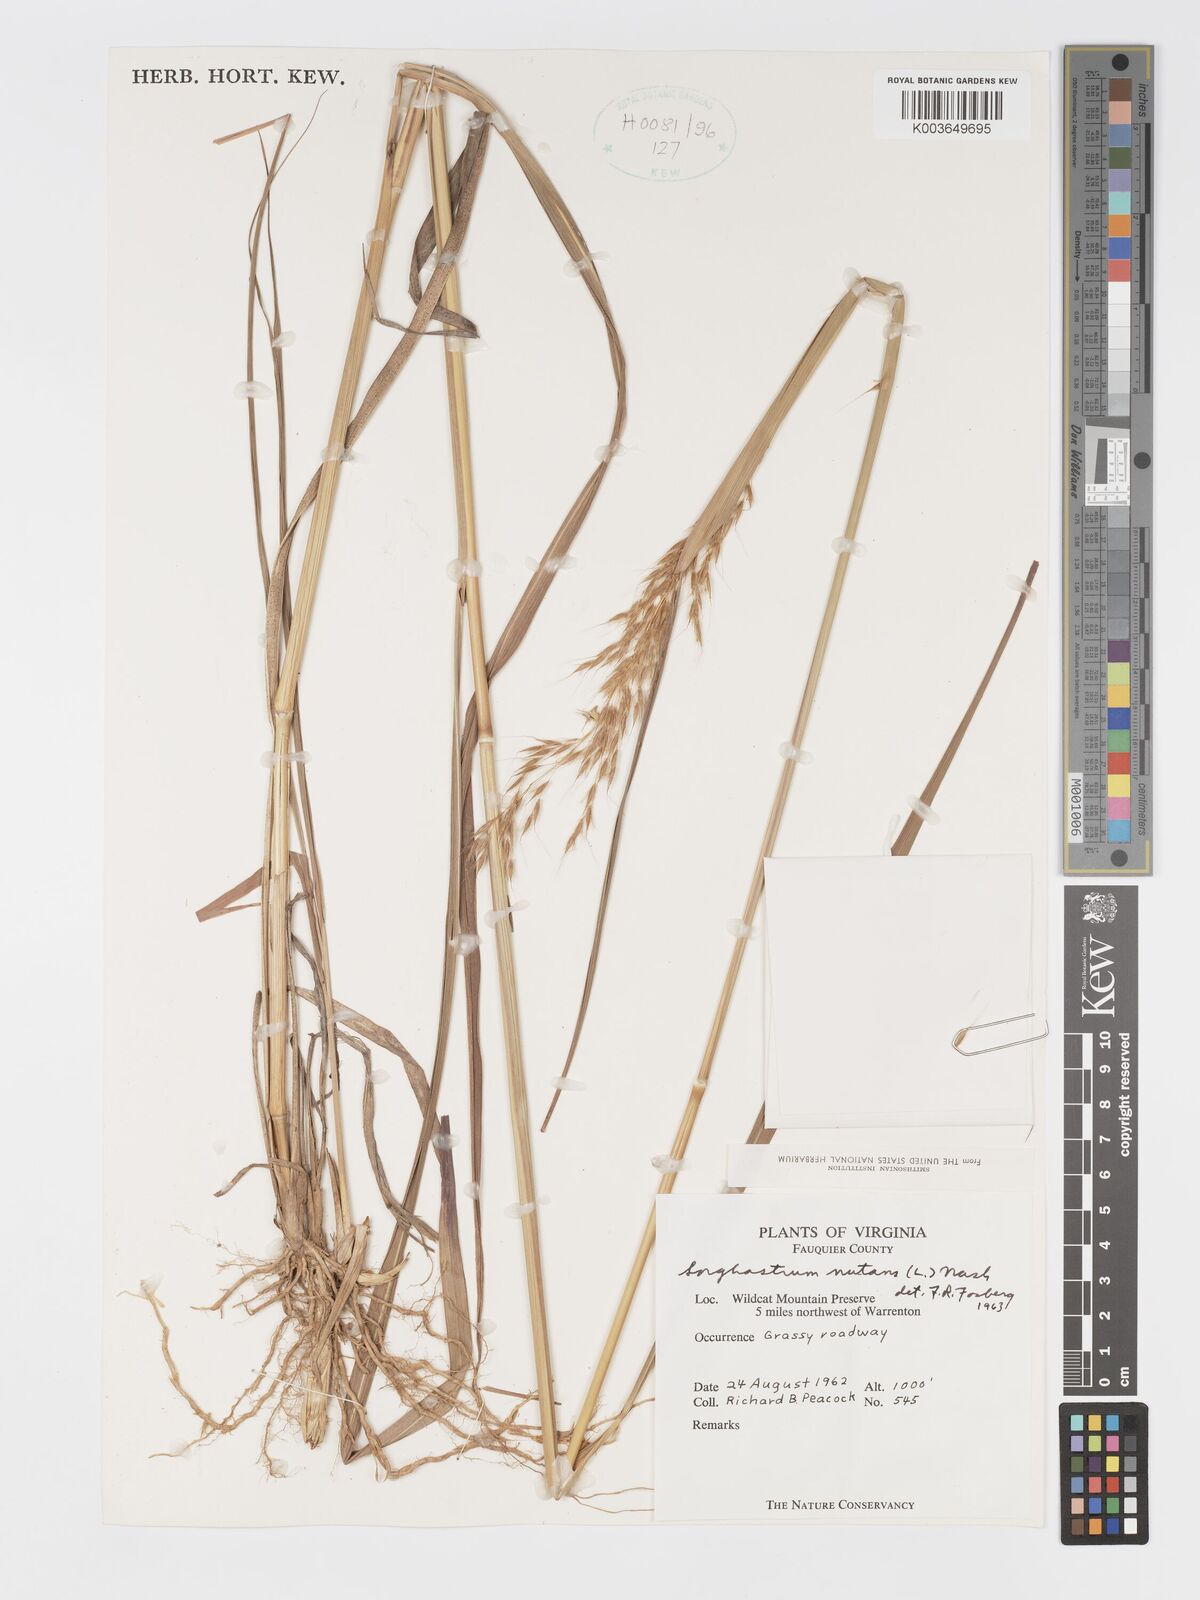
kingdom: Plantae
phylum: Tracheophyta
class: Liliopsida
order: Poales
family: Poaceae
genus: Sorghastrum
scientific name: Sorghastrum nutans
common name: Indian grass
